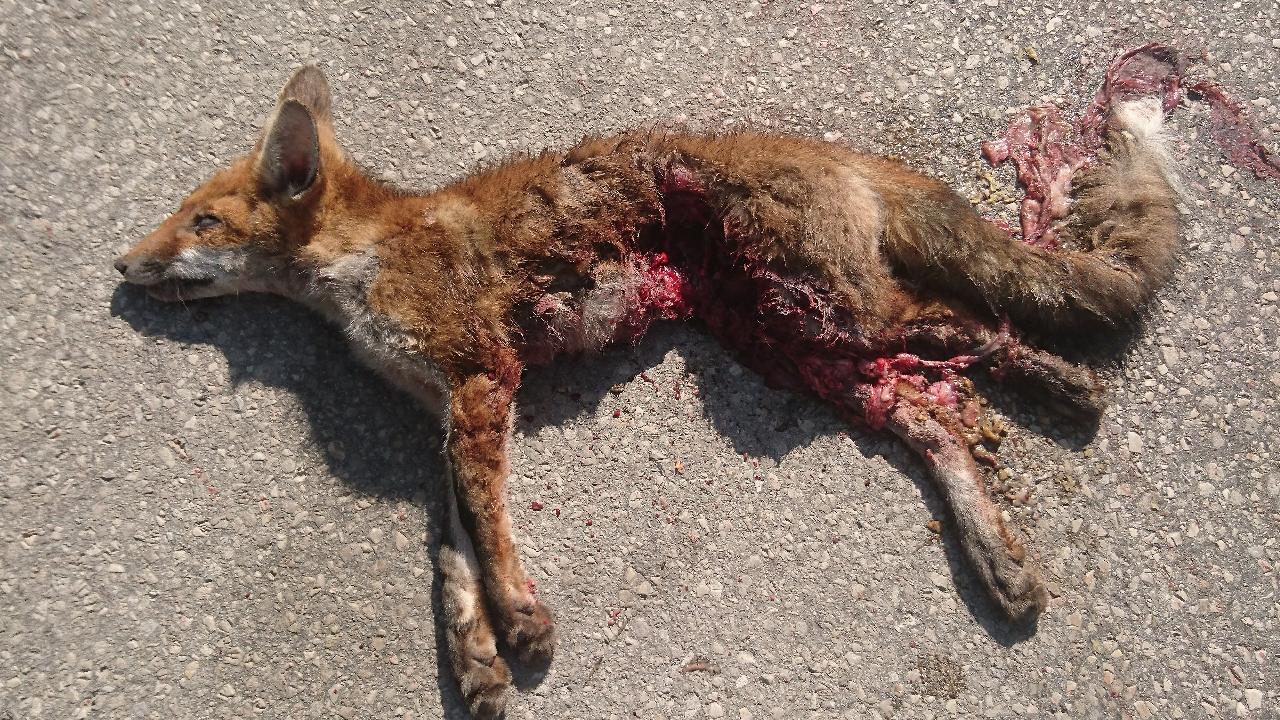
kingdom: Animalia
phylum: Chordata
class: Mammalia
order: Carnivora
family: Canidae
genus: Vulpes
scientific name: Vulpes vulpes
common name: Red fox
